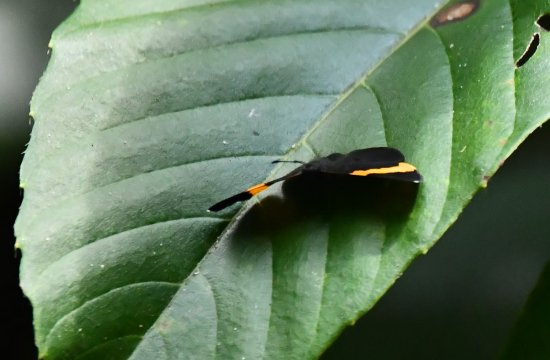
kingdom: Animalia
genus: Pterographium
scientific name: Pterographium
